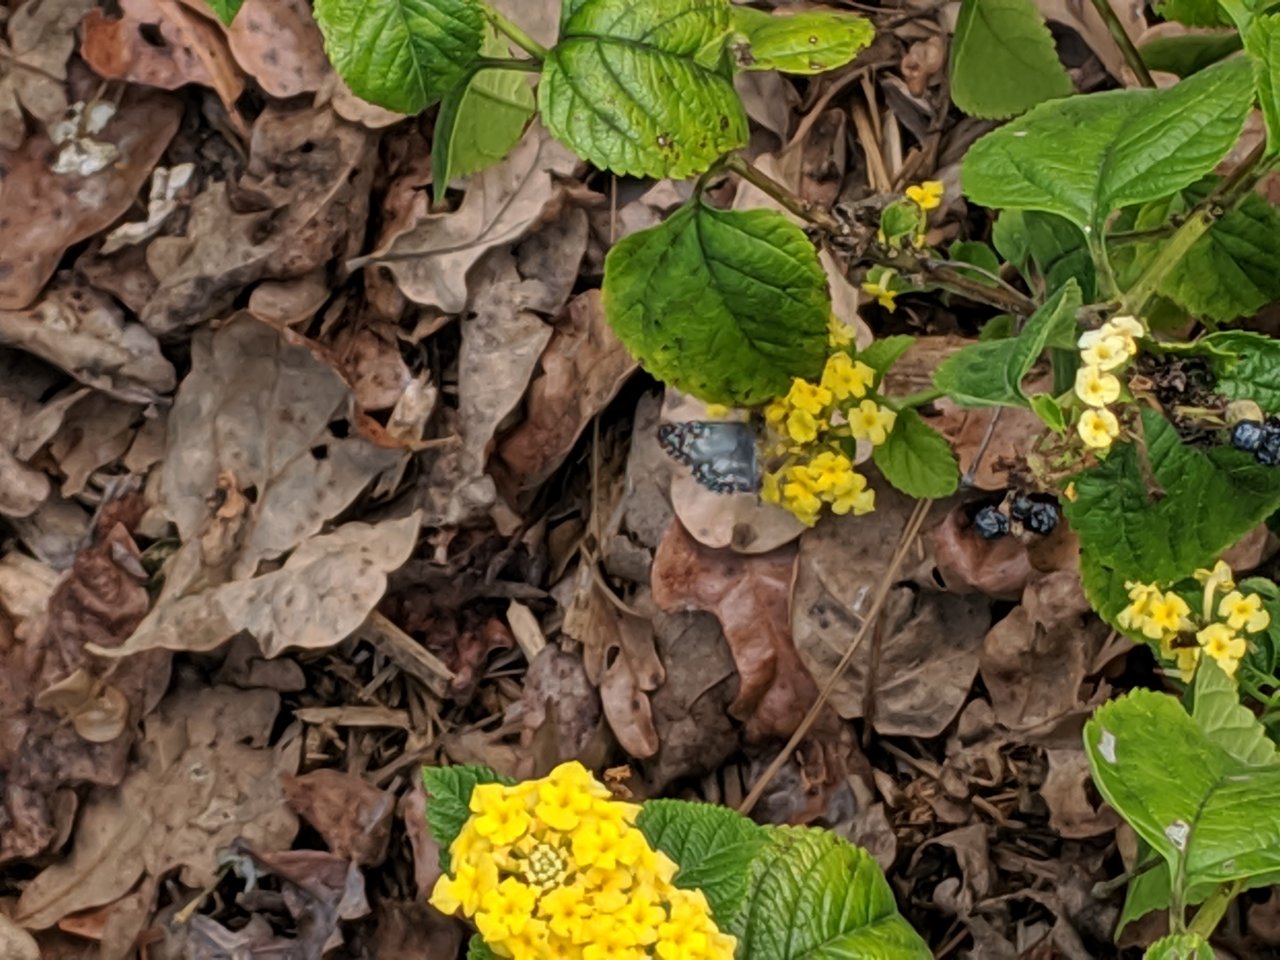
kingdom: Animalia
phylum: Arthropoda
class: Insecta
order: Lepidoptera
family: Hesperiidae
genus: Pyrgus
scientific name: Pyrgus communis
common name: Common Checkered-Skipper
